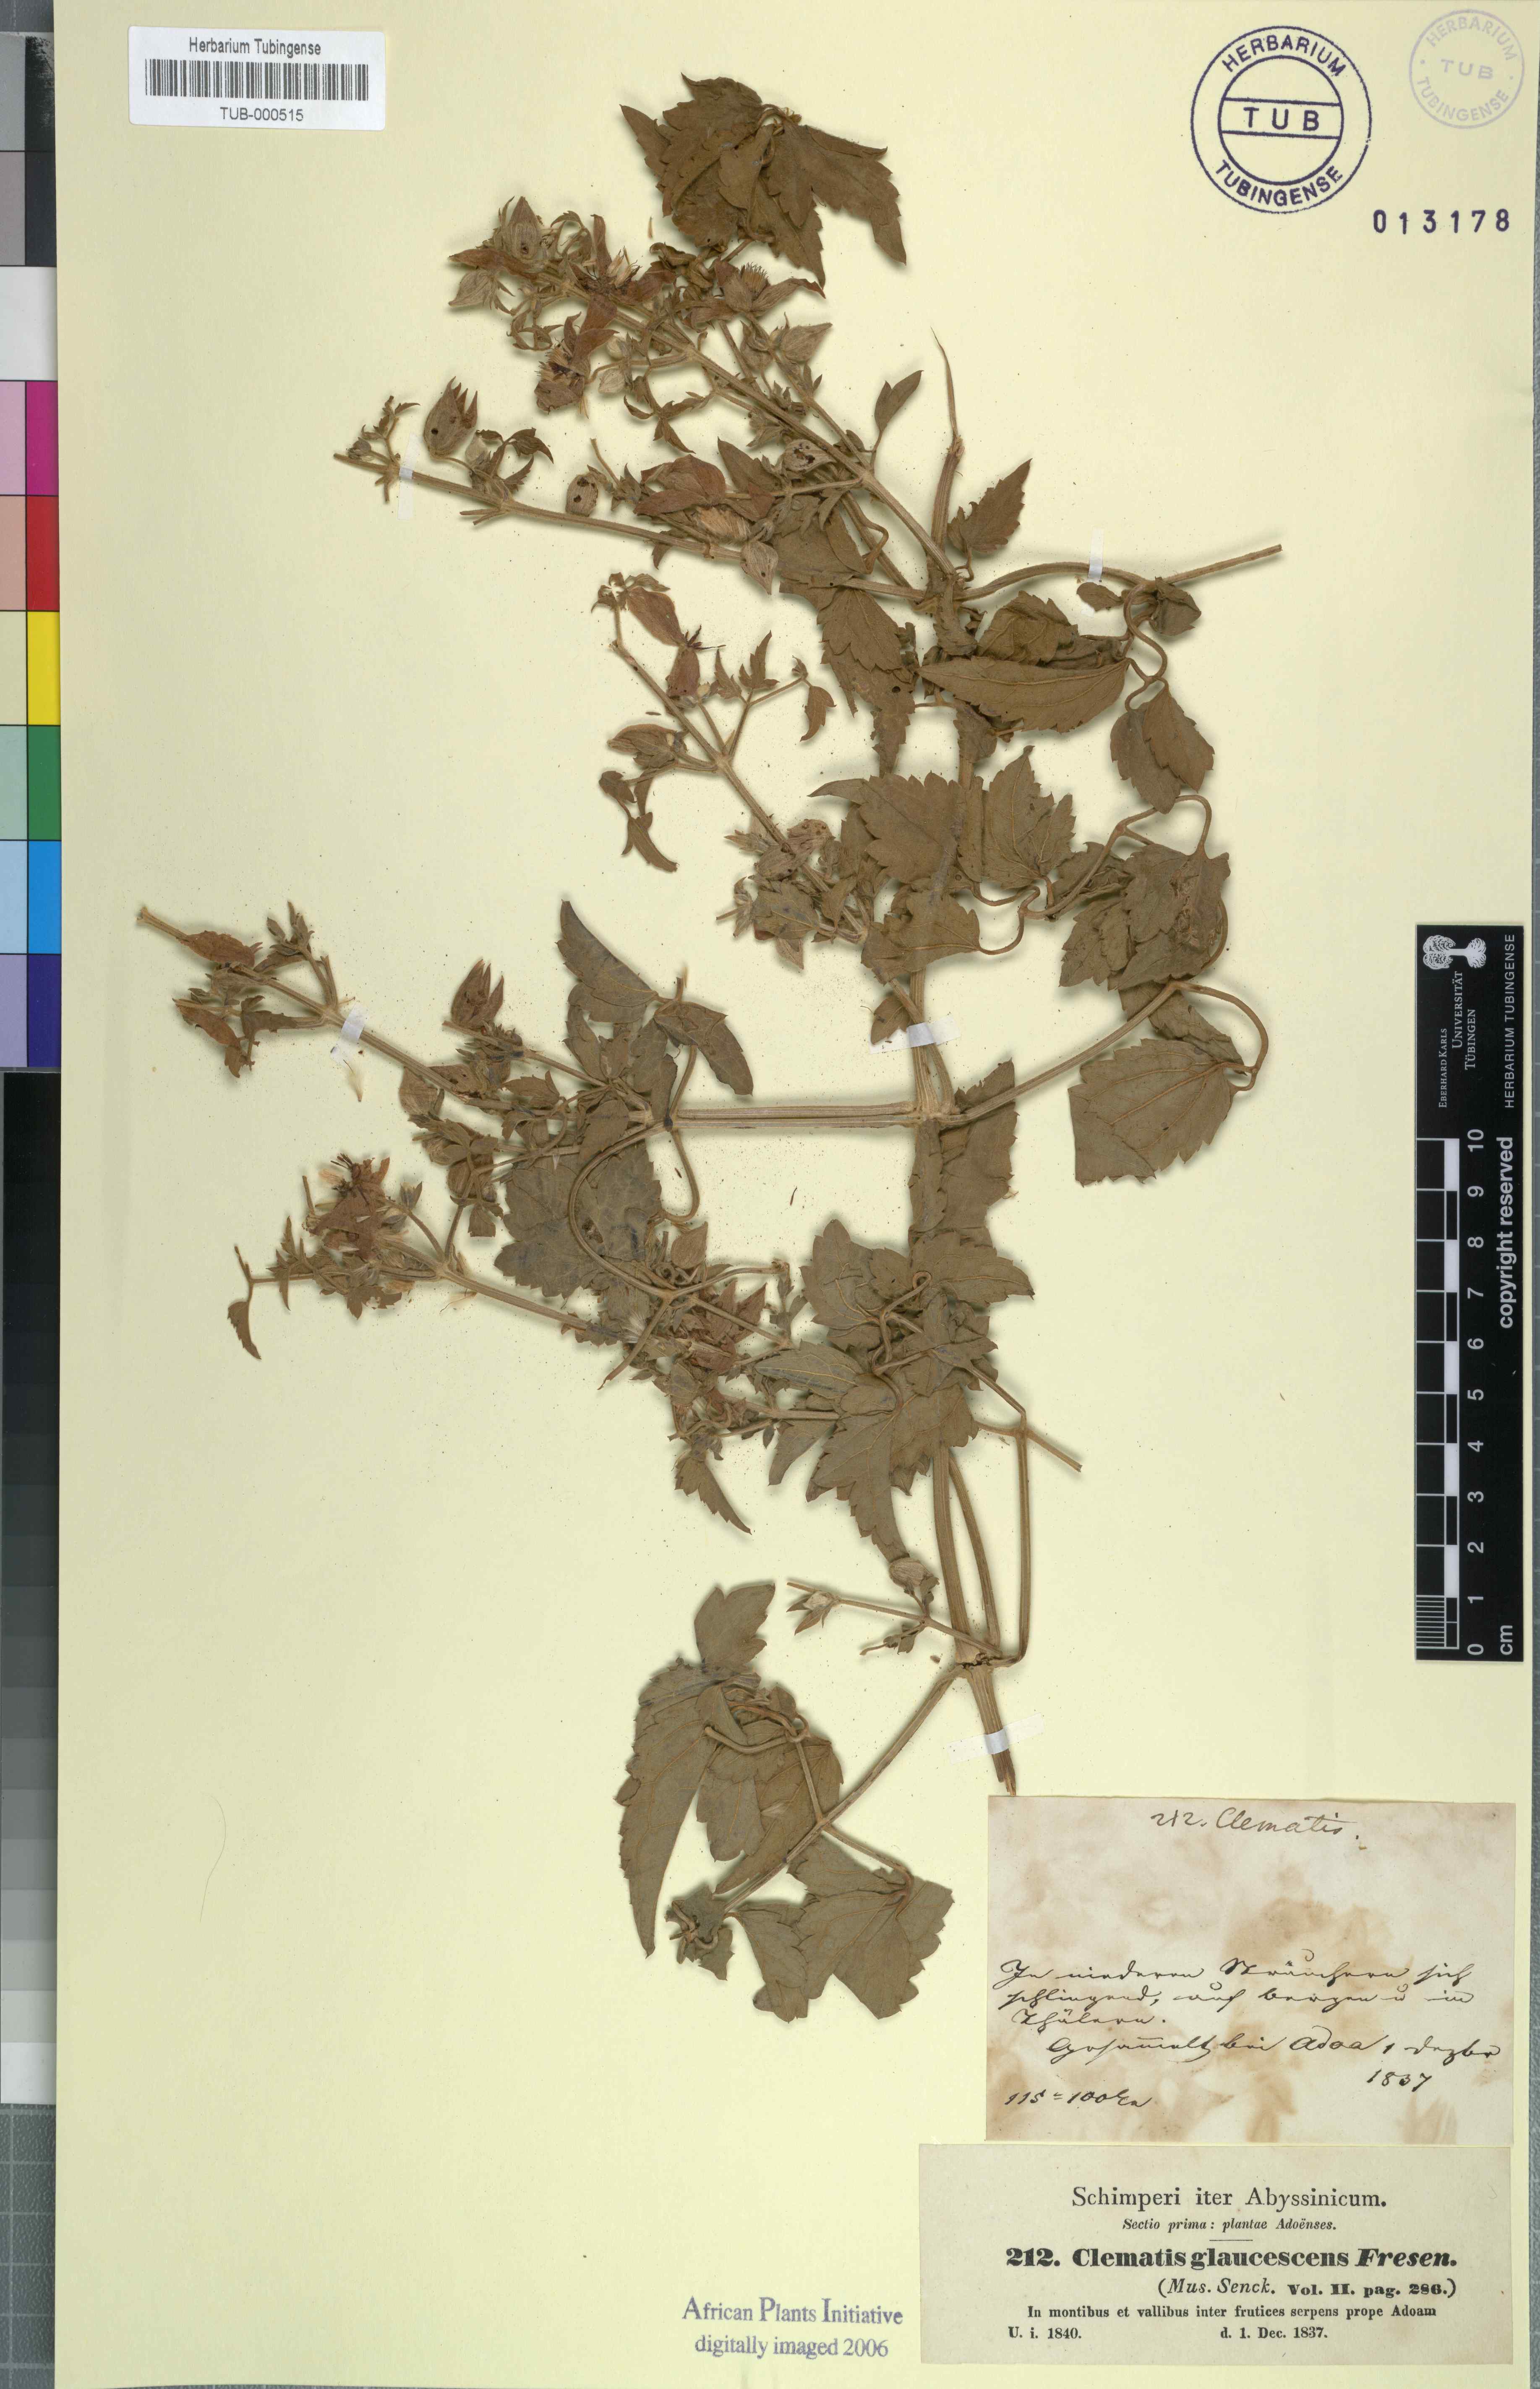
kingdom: Plantae
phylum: Tracheophyta
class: Magnoliopsida
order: Ranunculales
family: Ranunculaceae
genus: Clematis
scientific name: Clematis
